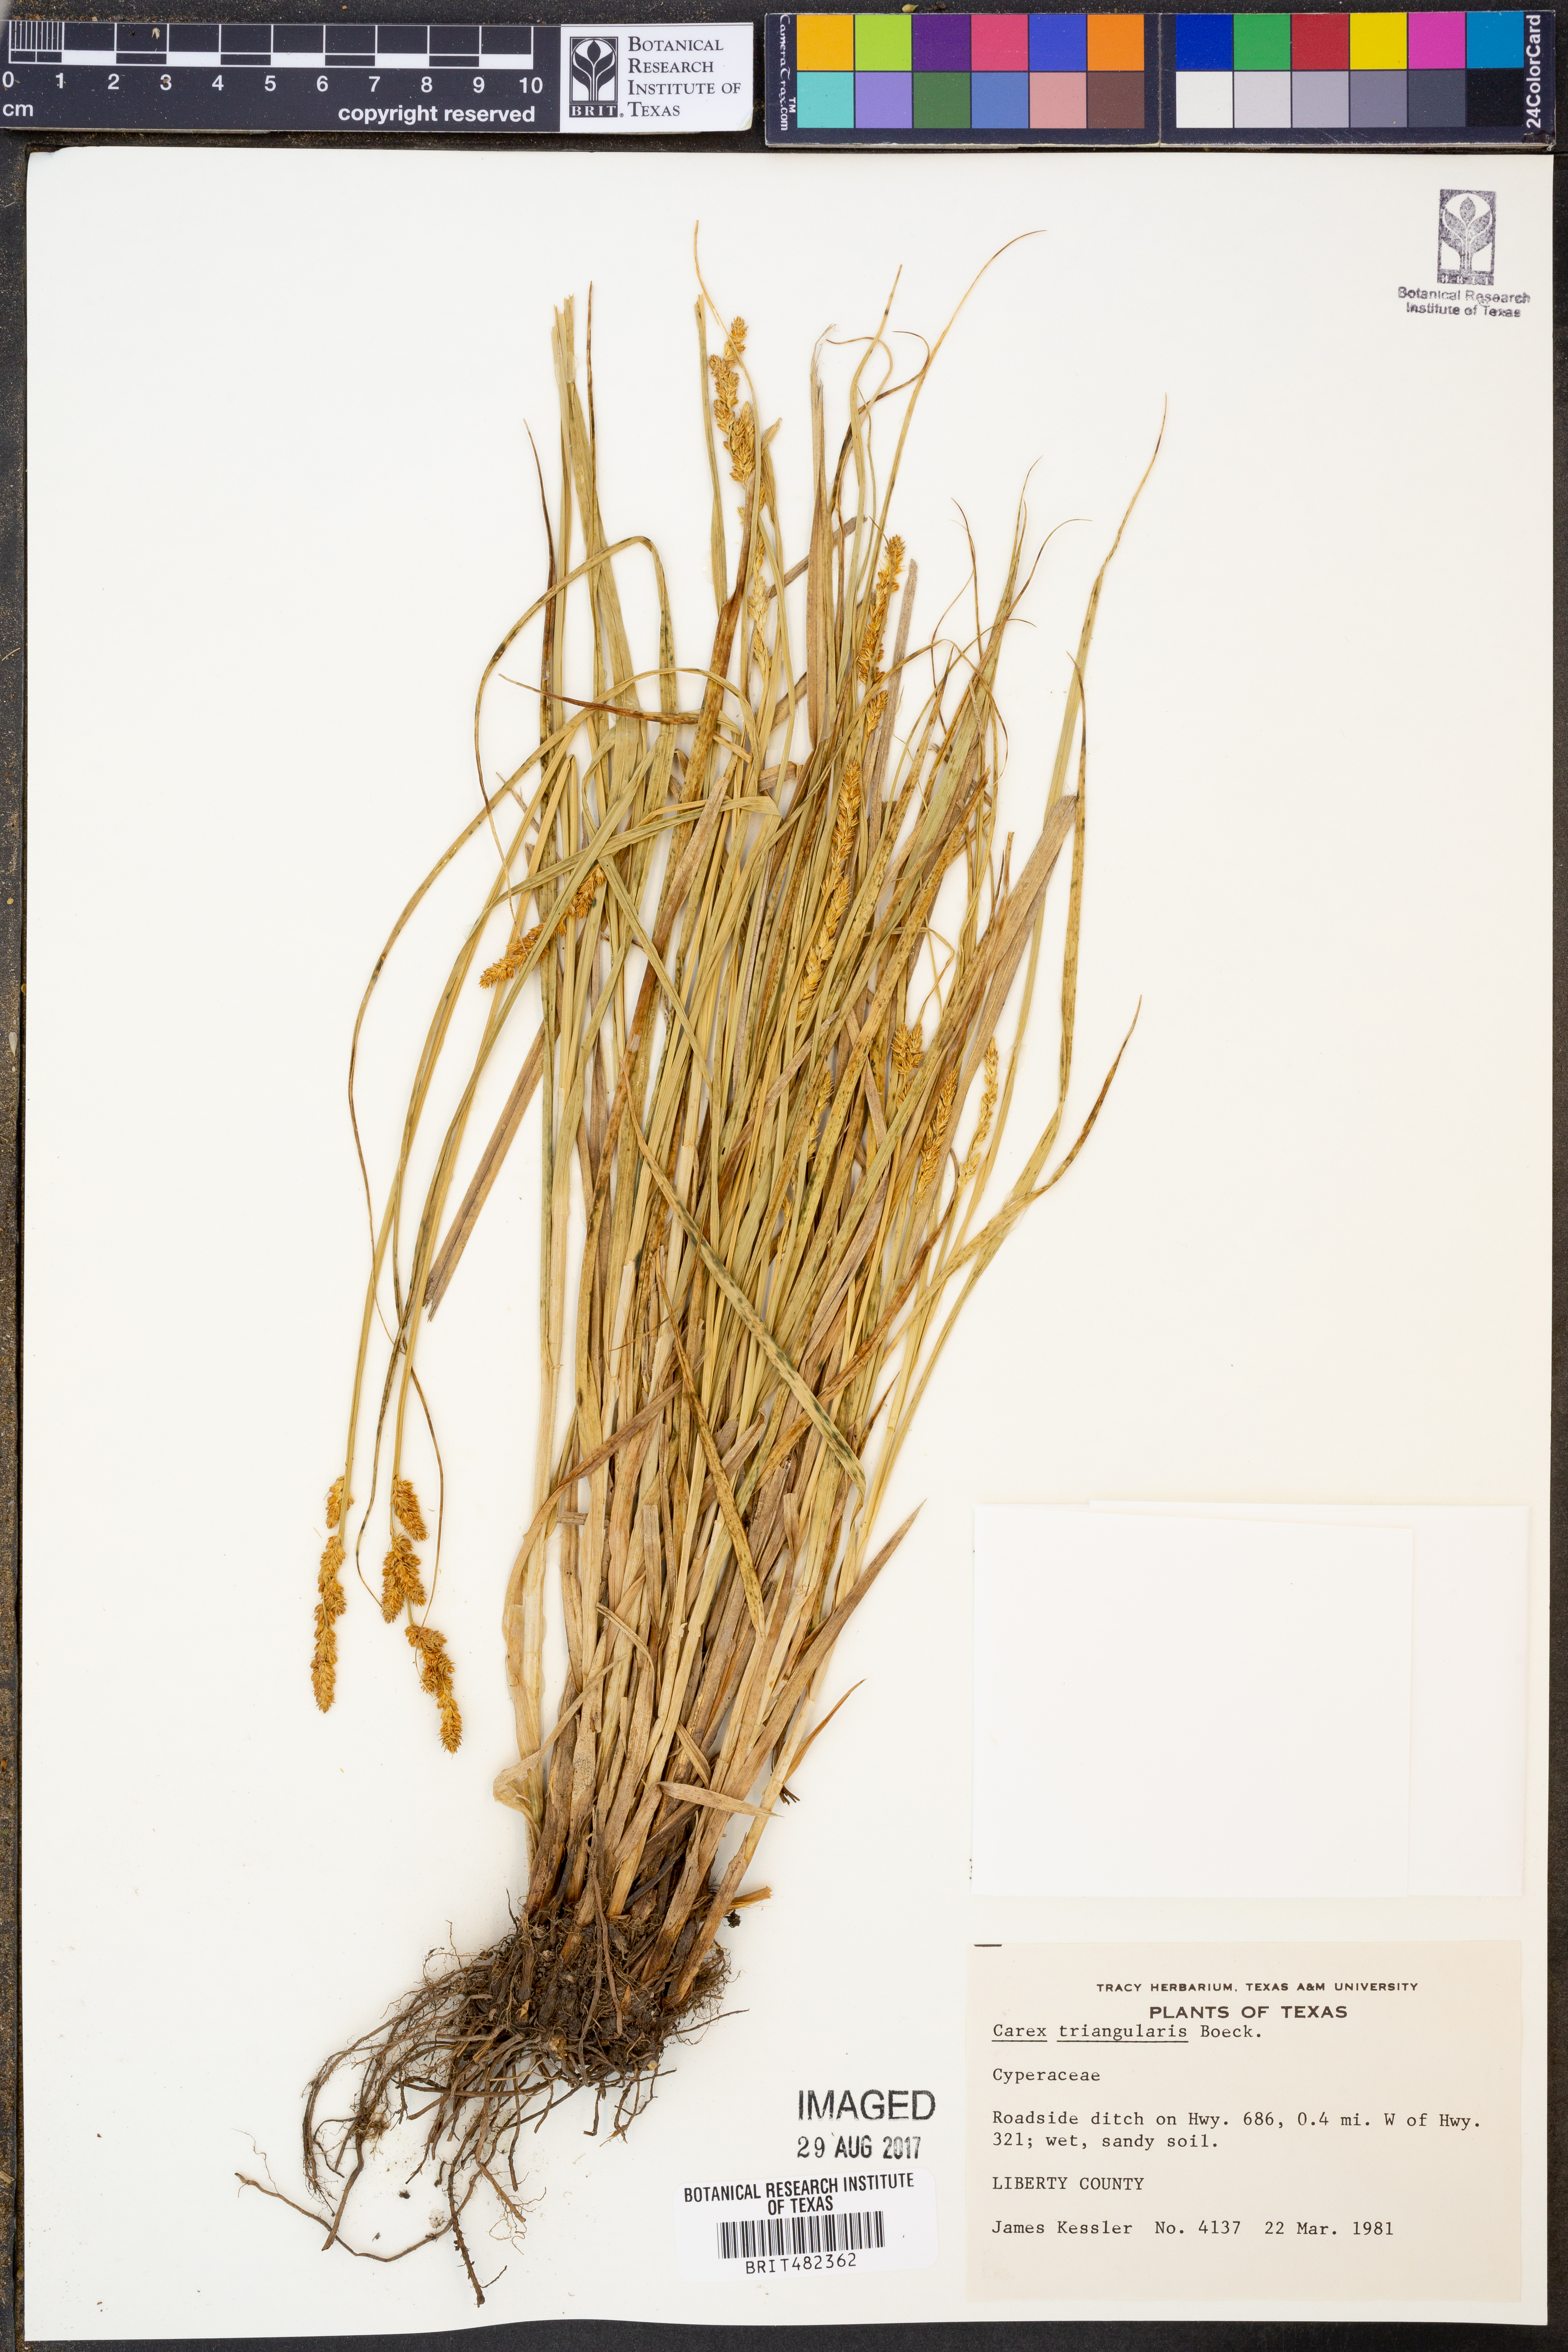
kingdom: Plantae
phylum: Tracheophyta
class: Liliopsida
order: Poales
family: Cyperaceae
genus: Carex
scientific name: Carex triangularis
